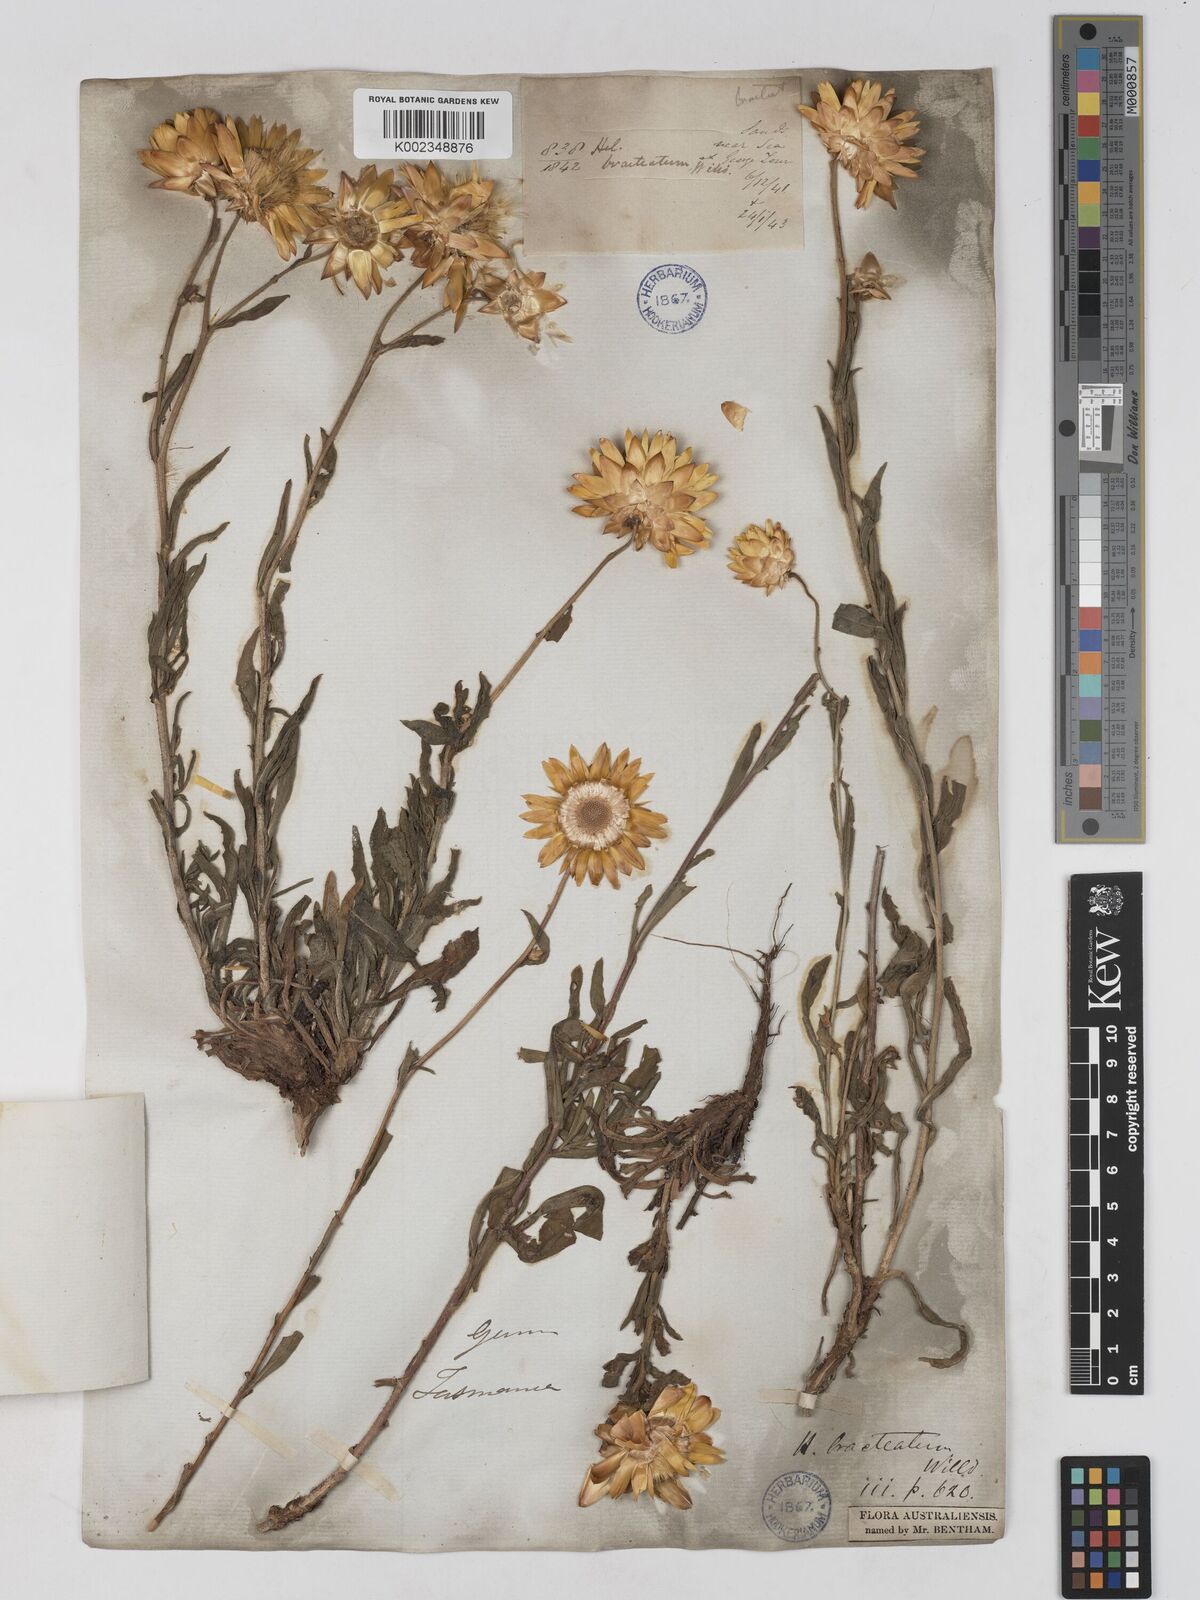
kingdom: Plantae
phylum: Tracheophyta
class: Magnoliopsida
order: Asterales
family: Asteraceae
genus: Xerochrysum
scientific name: Xerochrysum bracteatum
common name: Bracted strawflower
